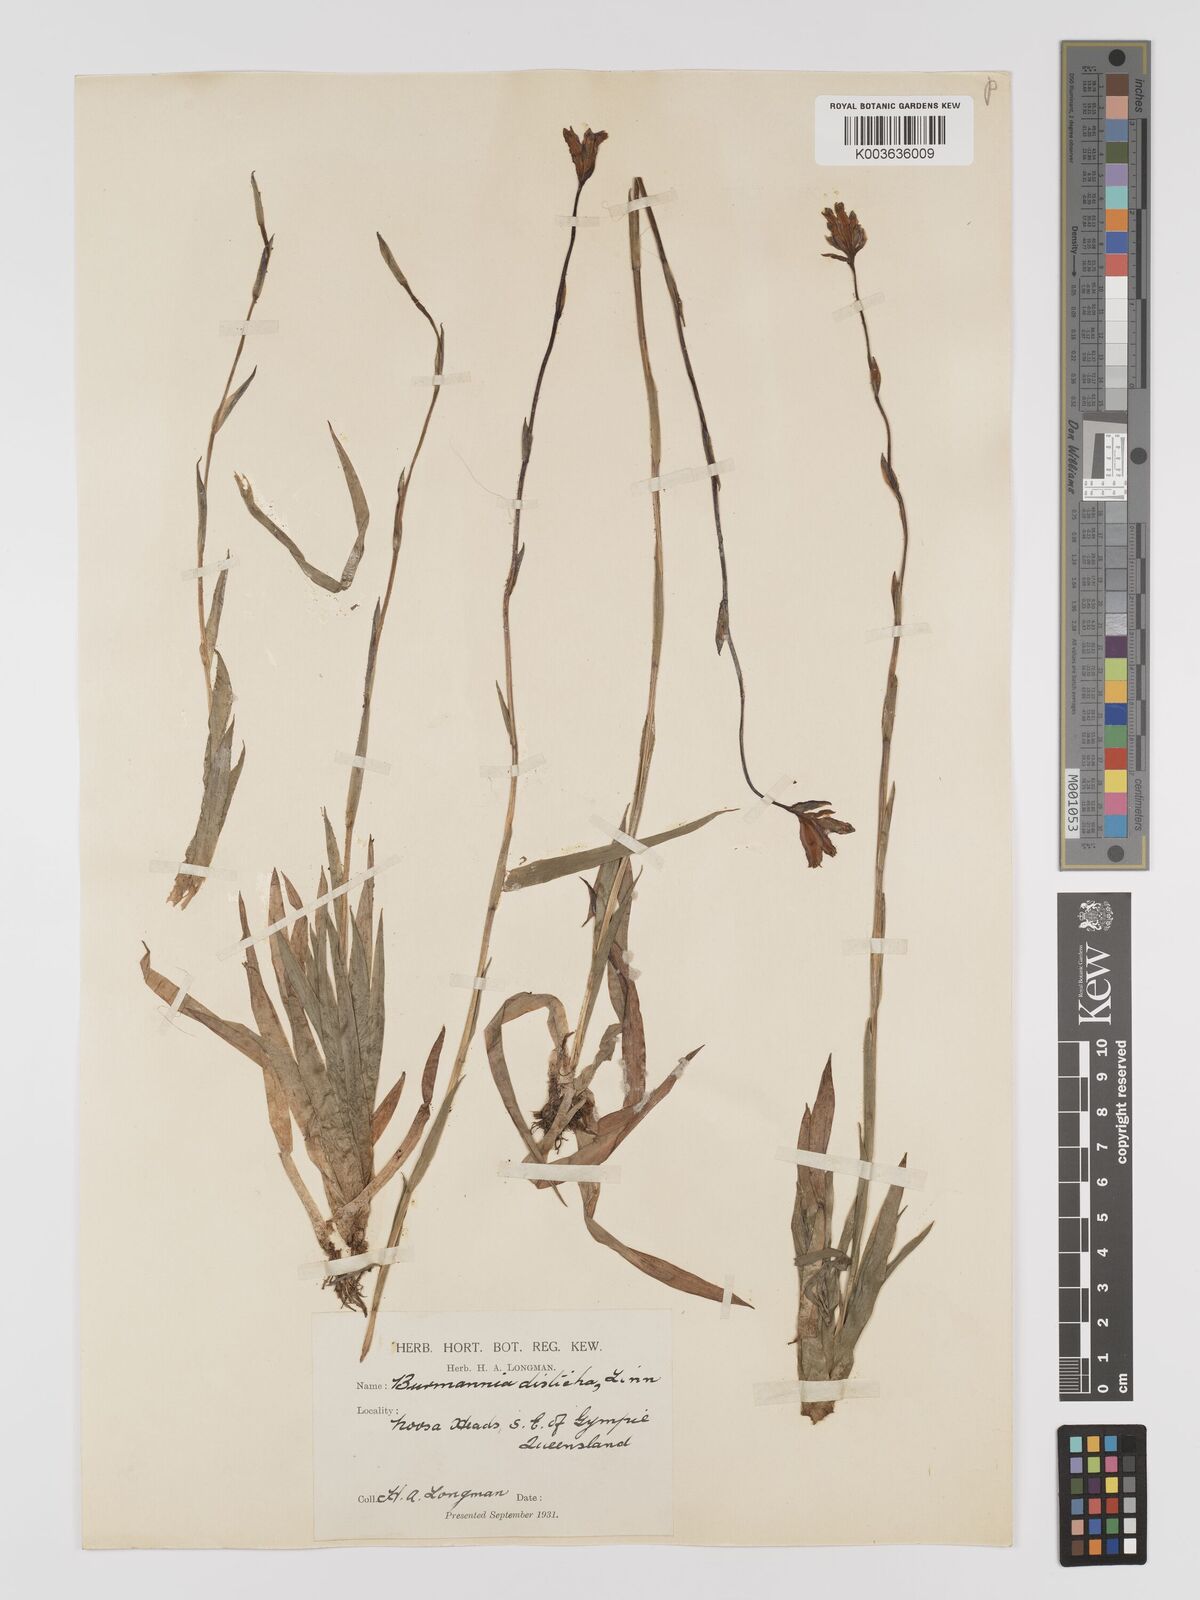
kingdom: Plantae
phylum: Tracheophyta
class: Liliopsida
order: Dioscoreales
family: Burmanniaceae
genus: Burmannia
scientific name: Burmannia disticha
